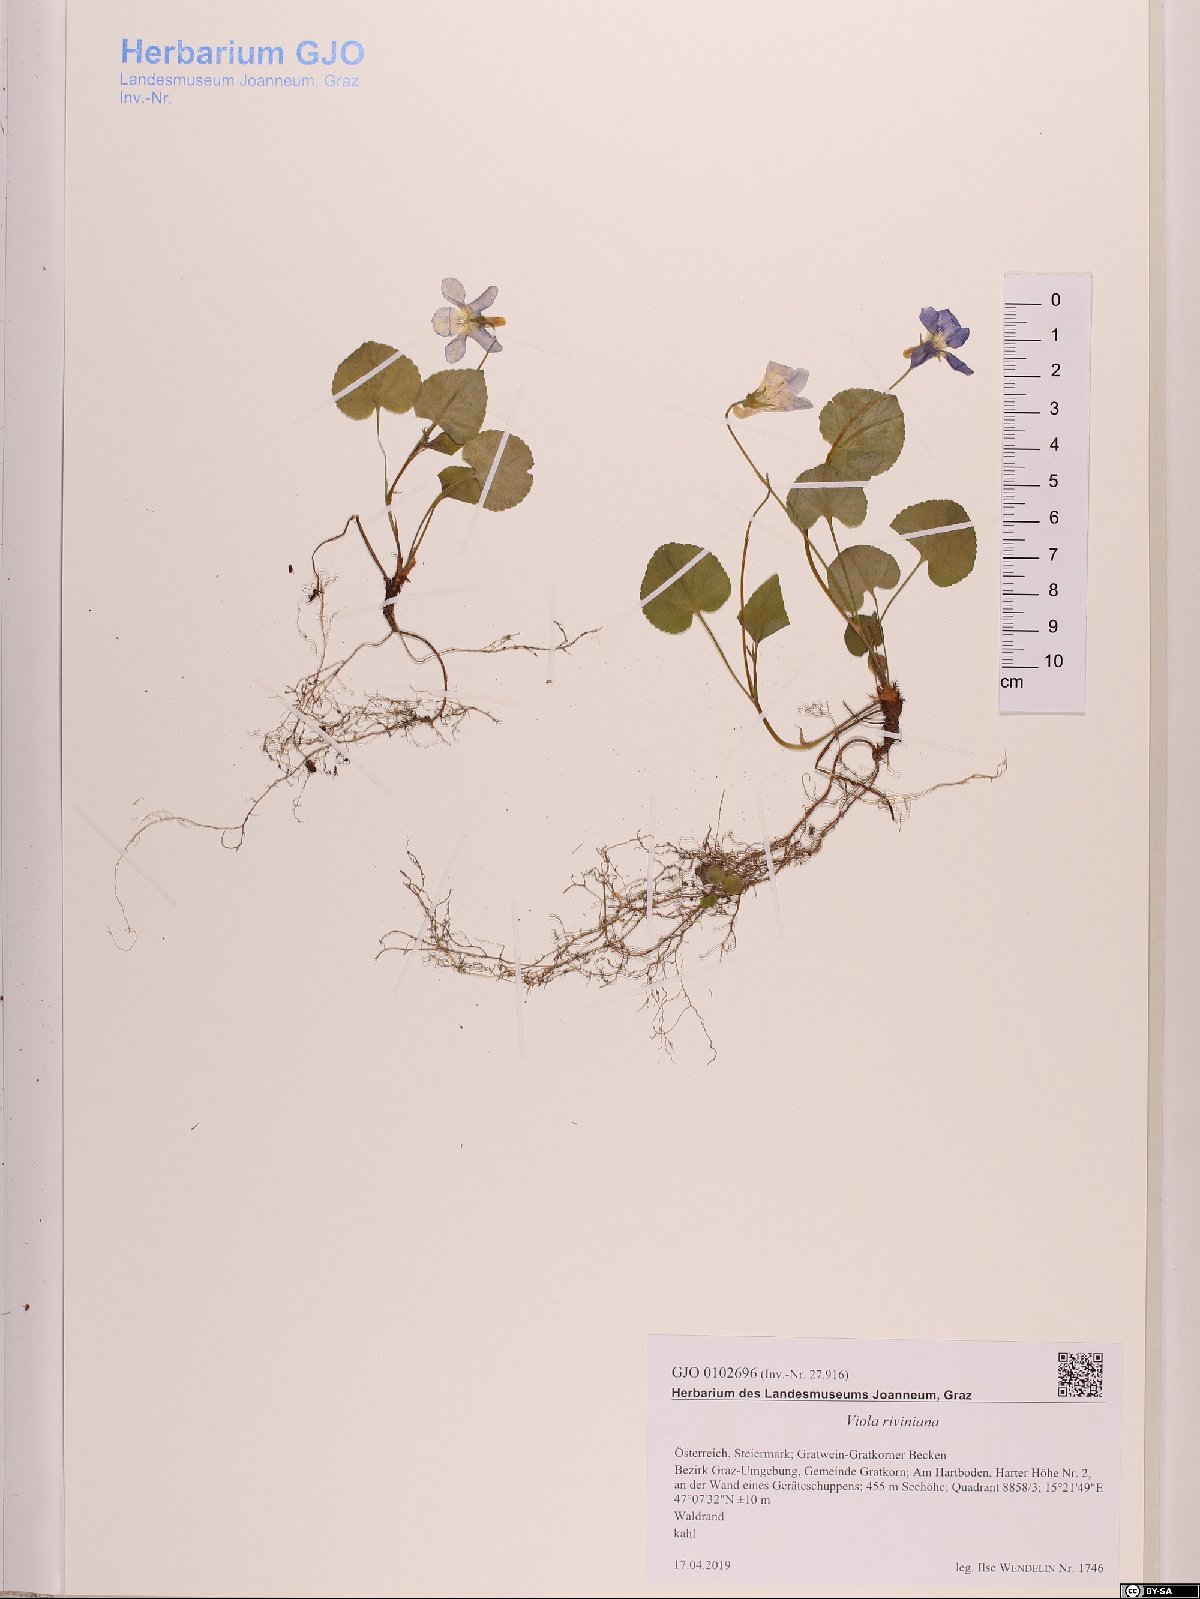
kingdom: Plantae
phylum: Tracheophyta
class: Magnoliopsida
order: Malpighiales
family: Violaceae
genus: Viola
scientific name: Viola riviniana
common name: Common dog-violet
